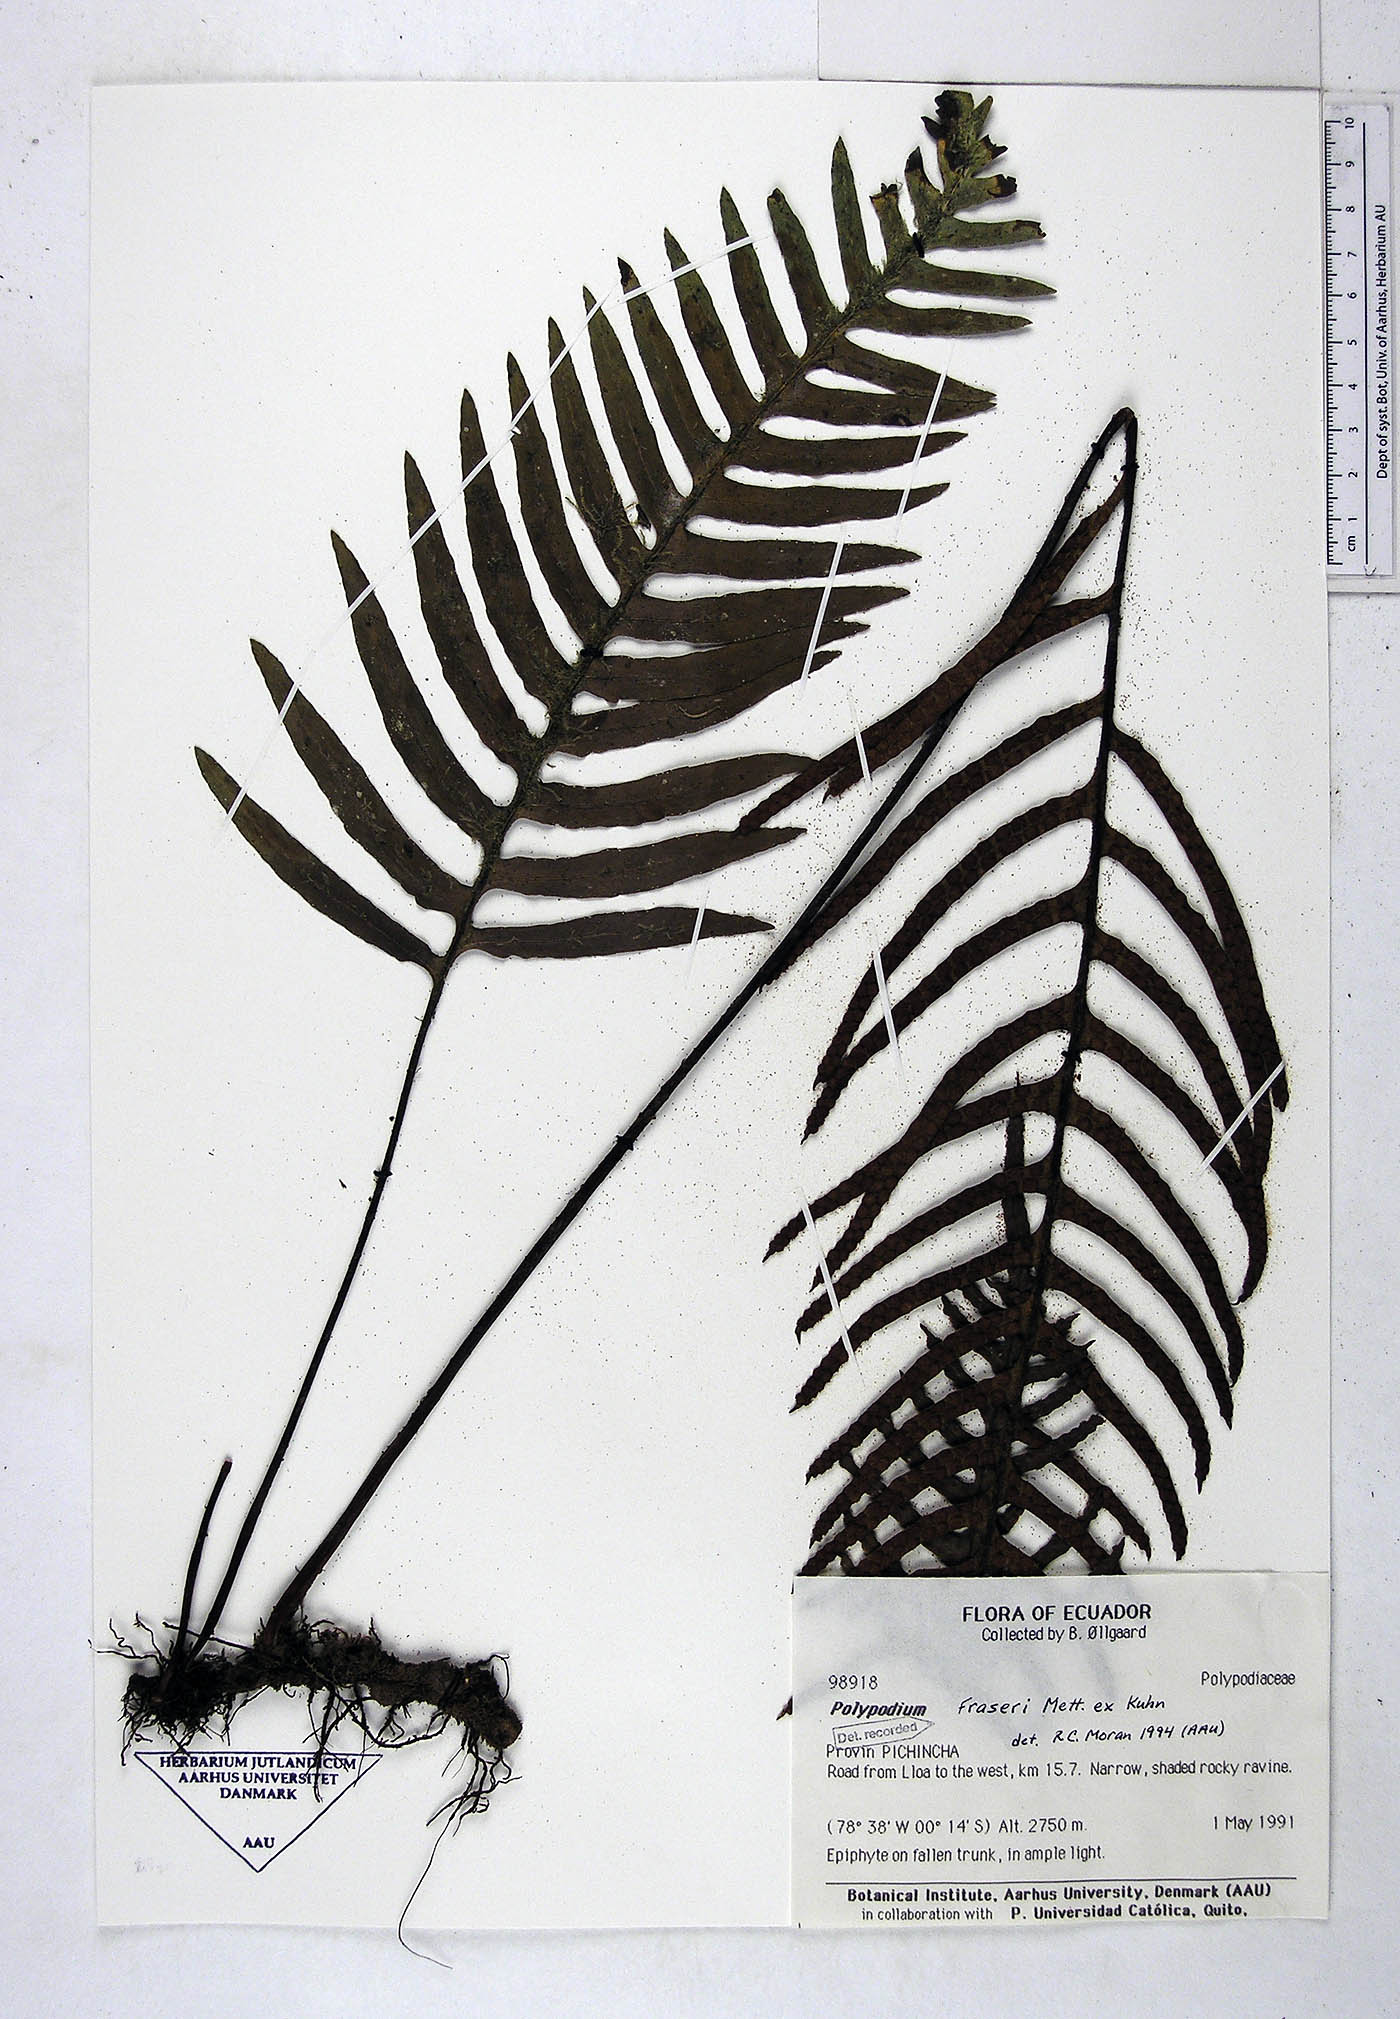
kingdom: Plantae
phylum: Tracheophyta
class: Polypodiopsida
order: Polypodiales
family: Polypodiaceae
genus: Pleopeltis
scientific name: Pleopeltis fraseri
